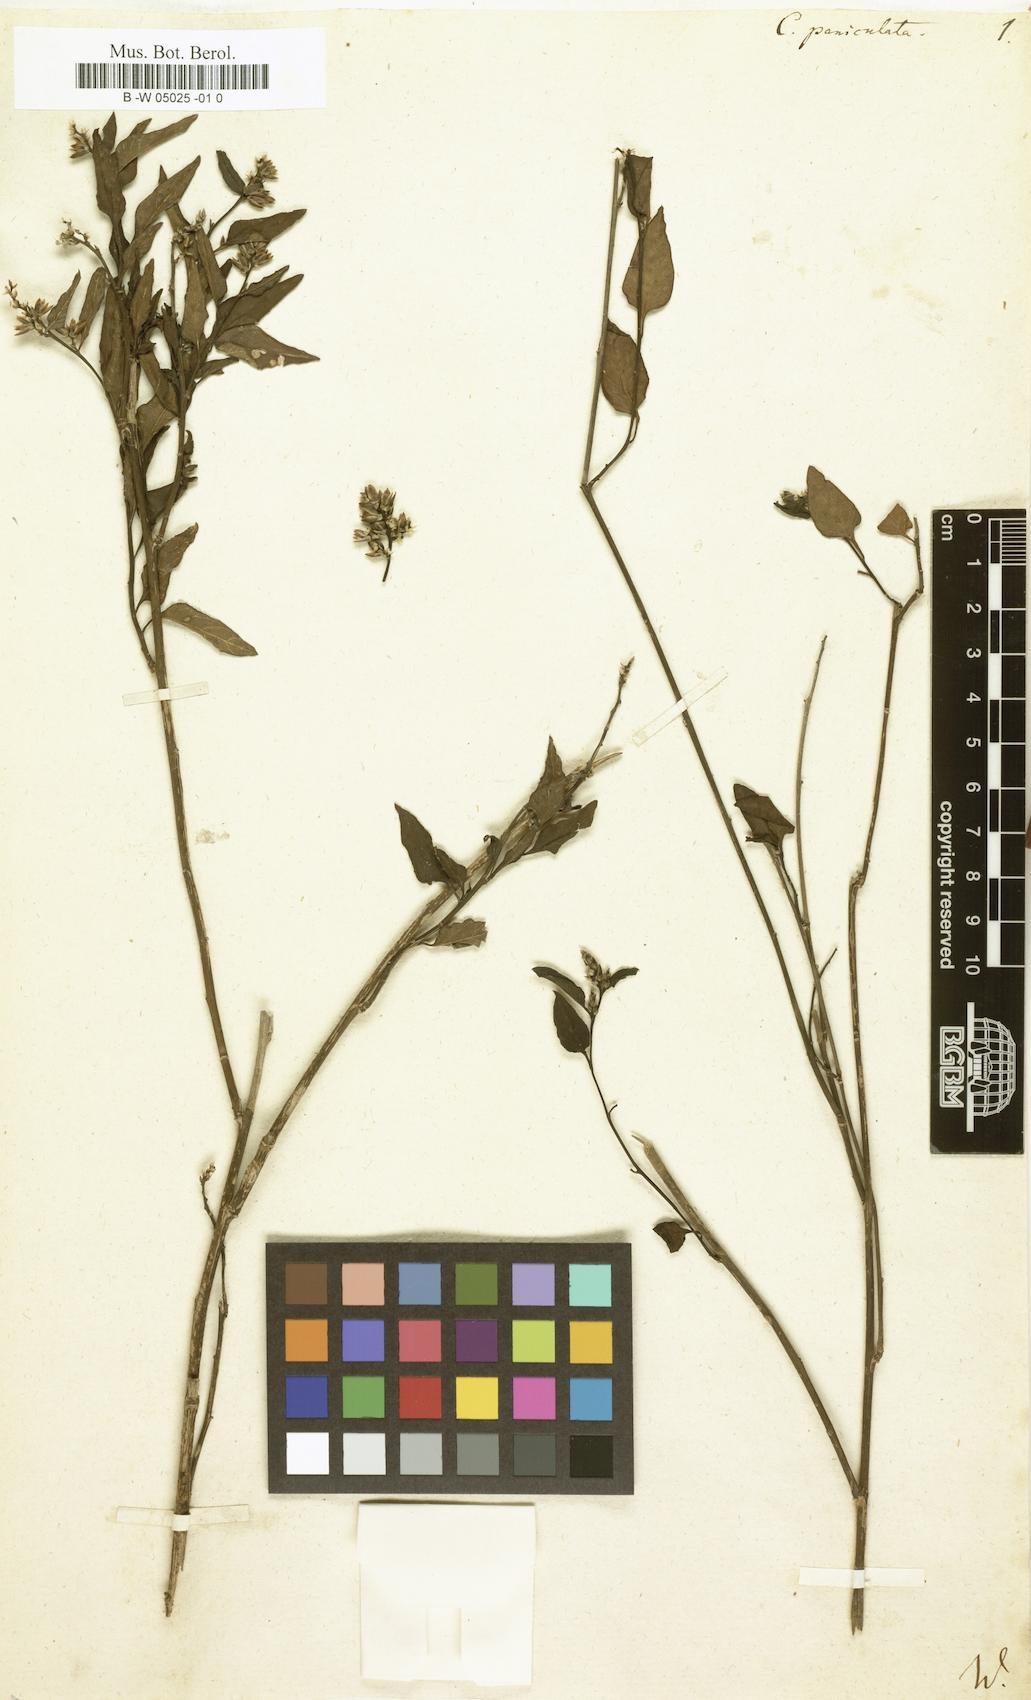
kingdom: Plantae
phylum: Tracheophyta
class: Magnoliopsida
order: Caryophyllales
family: Amaranthaceae
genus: Iresine
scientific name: Iresine rhizomatosa
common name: Juda's-bush
